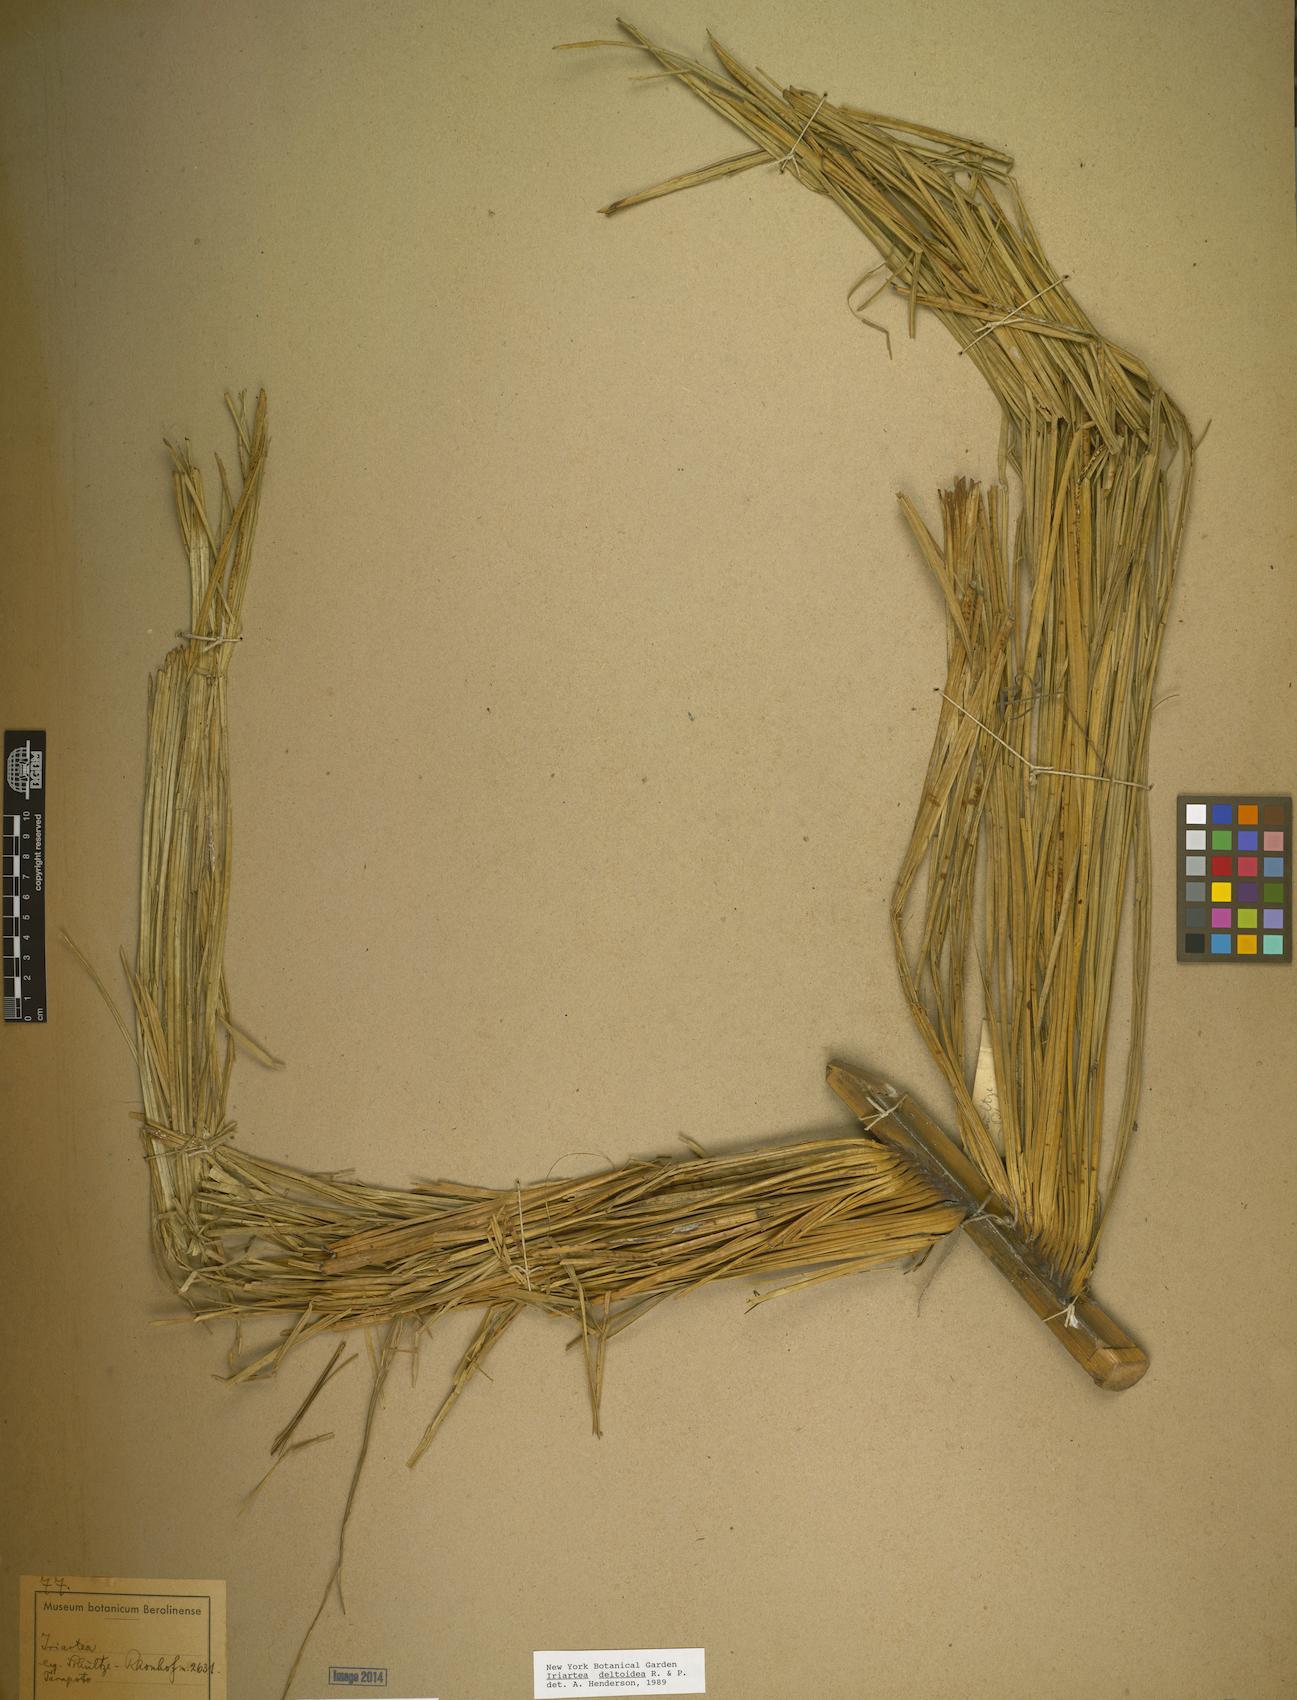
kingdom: Plantae
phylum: Tracheophyta
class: Liliopsida
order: Arecales
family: Arecaceae
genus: Iriartea
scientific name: Iriartea
